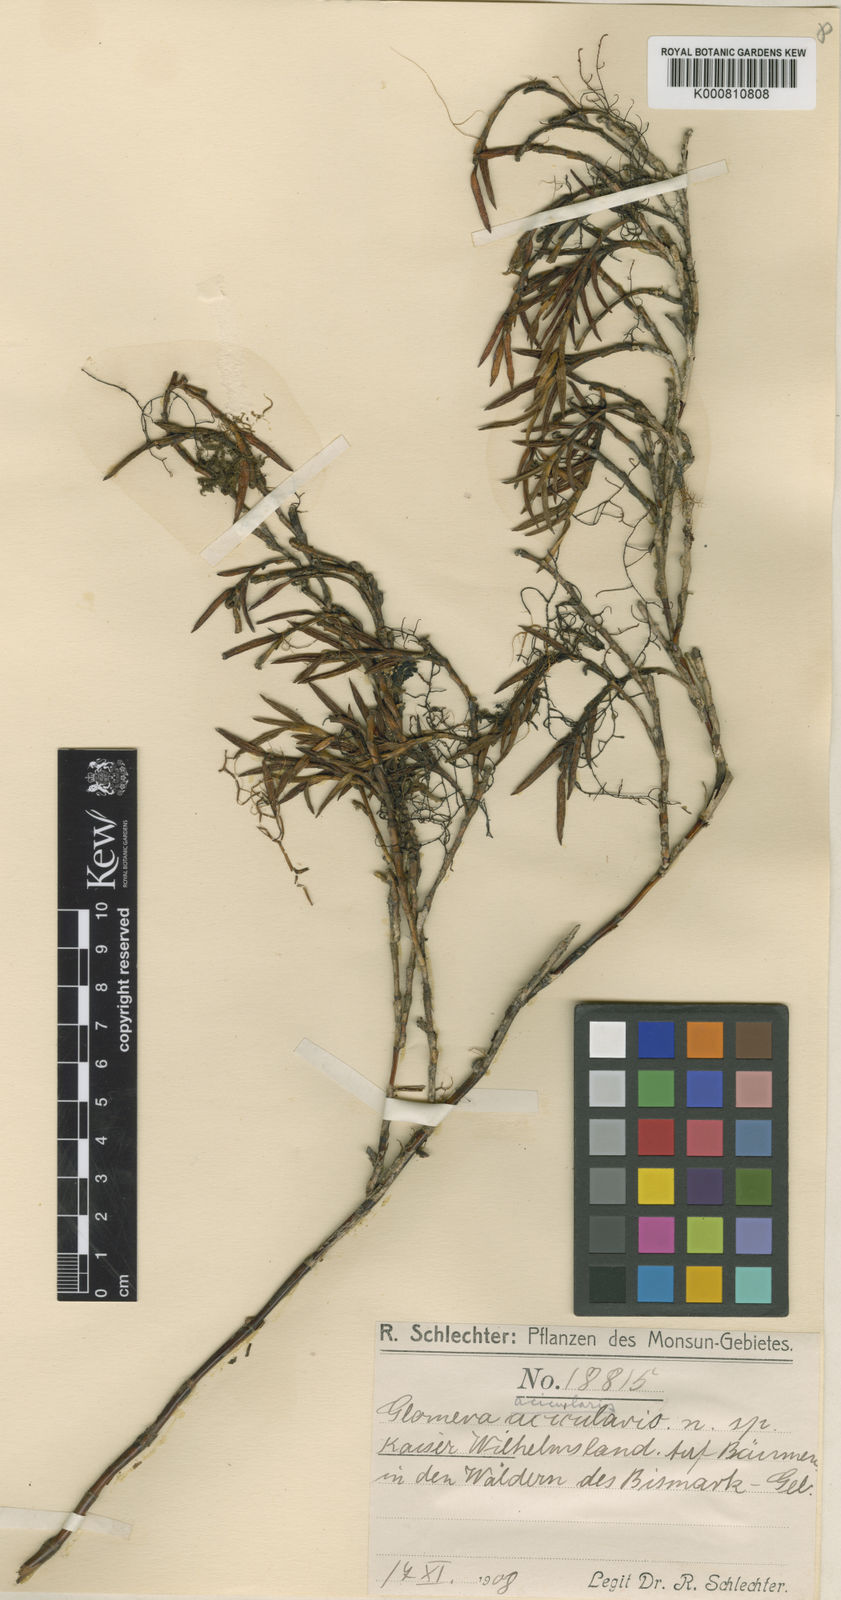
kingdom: Plantae
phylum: Tracheophyta
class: Liliopsida
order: Asparagales
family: Orchidaceae
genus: Glomera
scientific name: Glomera acicularis
